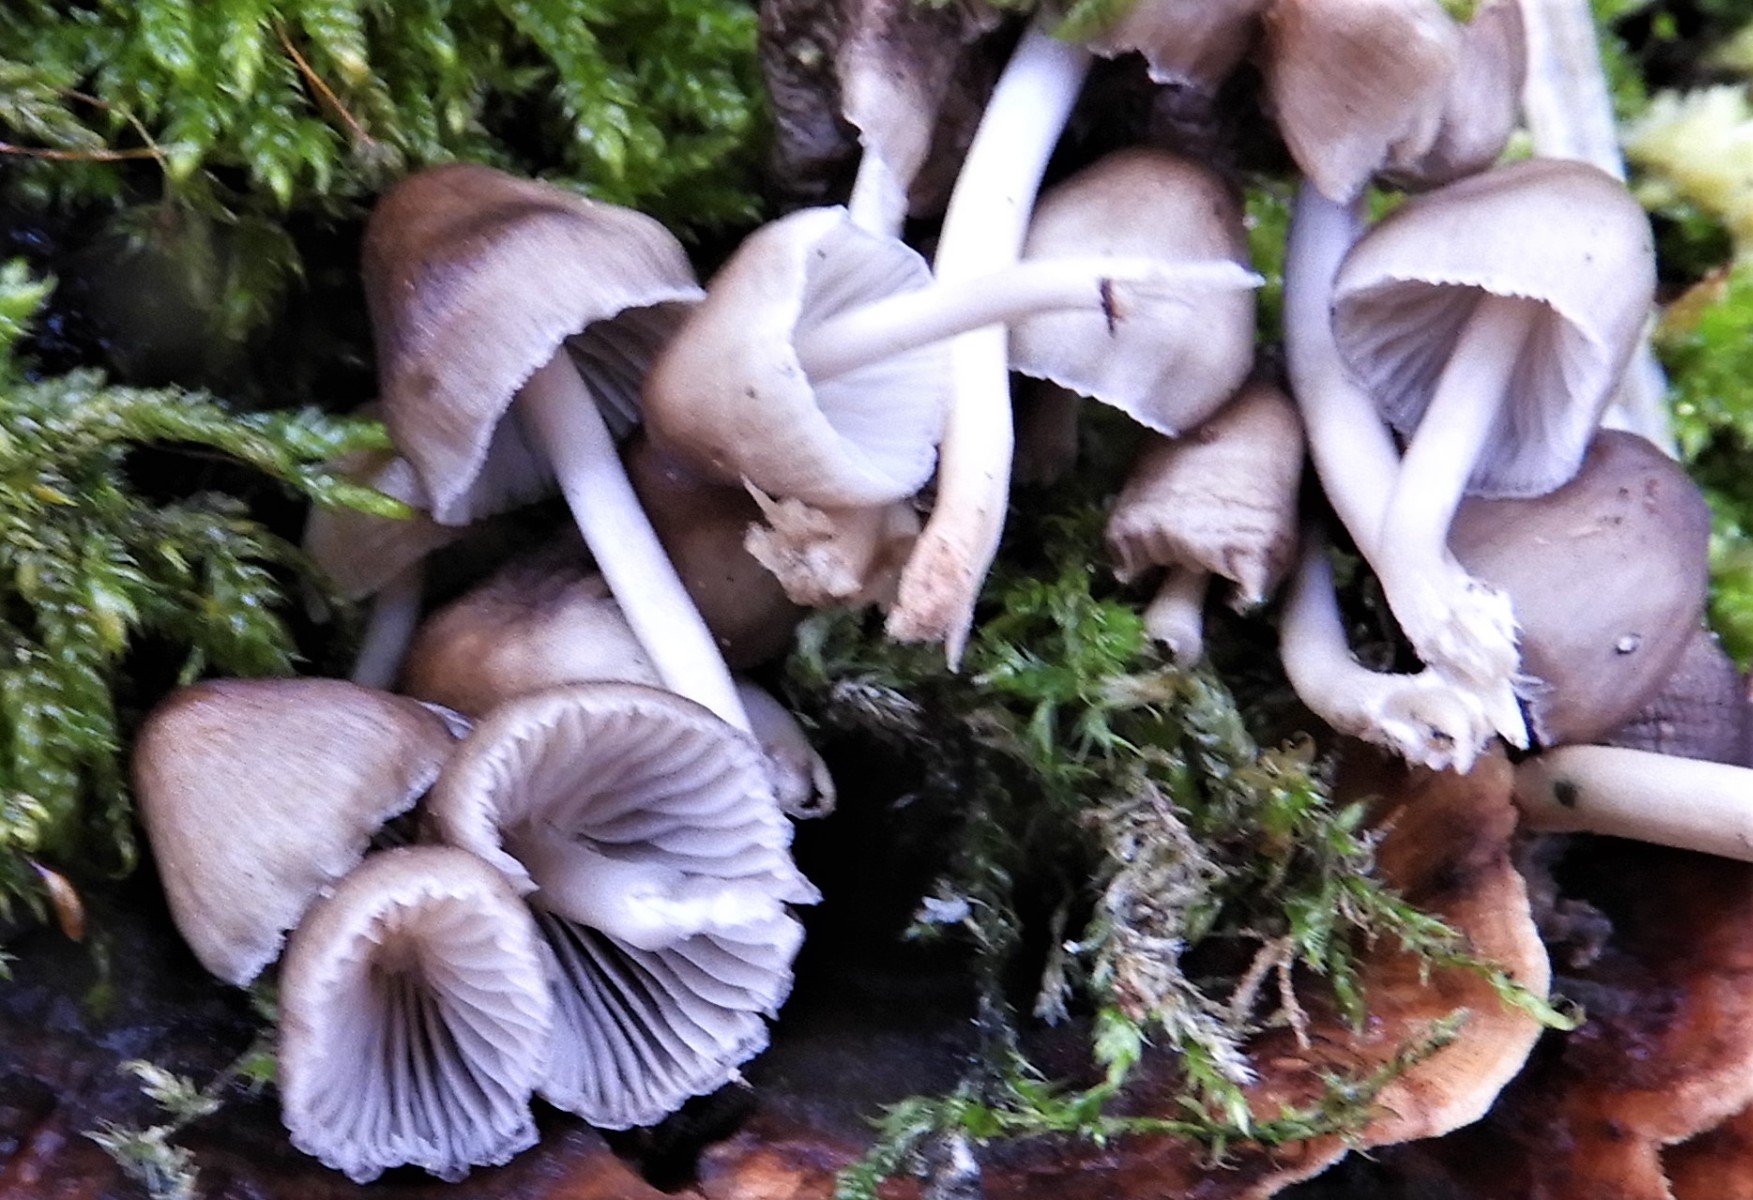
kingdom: Fungi
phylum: Basidiomycota
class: Agaricomycetes
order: Agaricales
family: Mycenaceae
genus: Mycena
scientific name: Mycena tintinnabulum
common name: vinter-huesvamp
